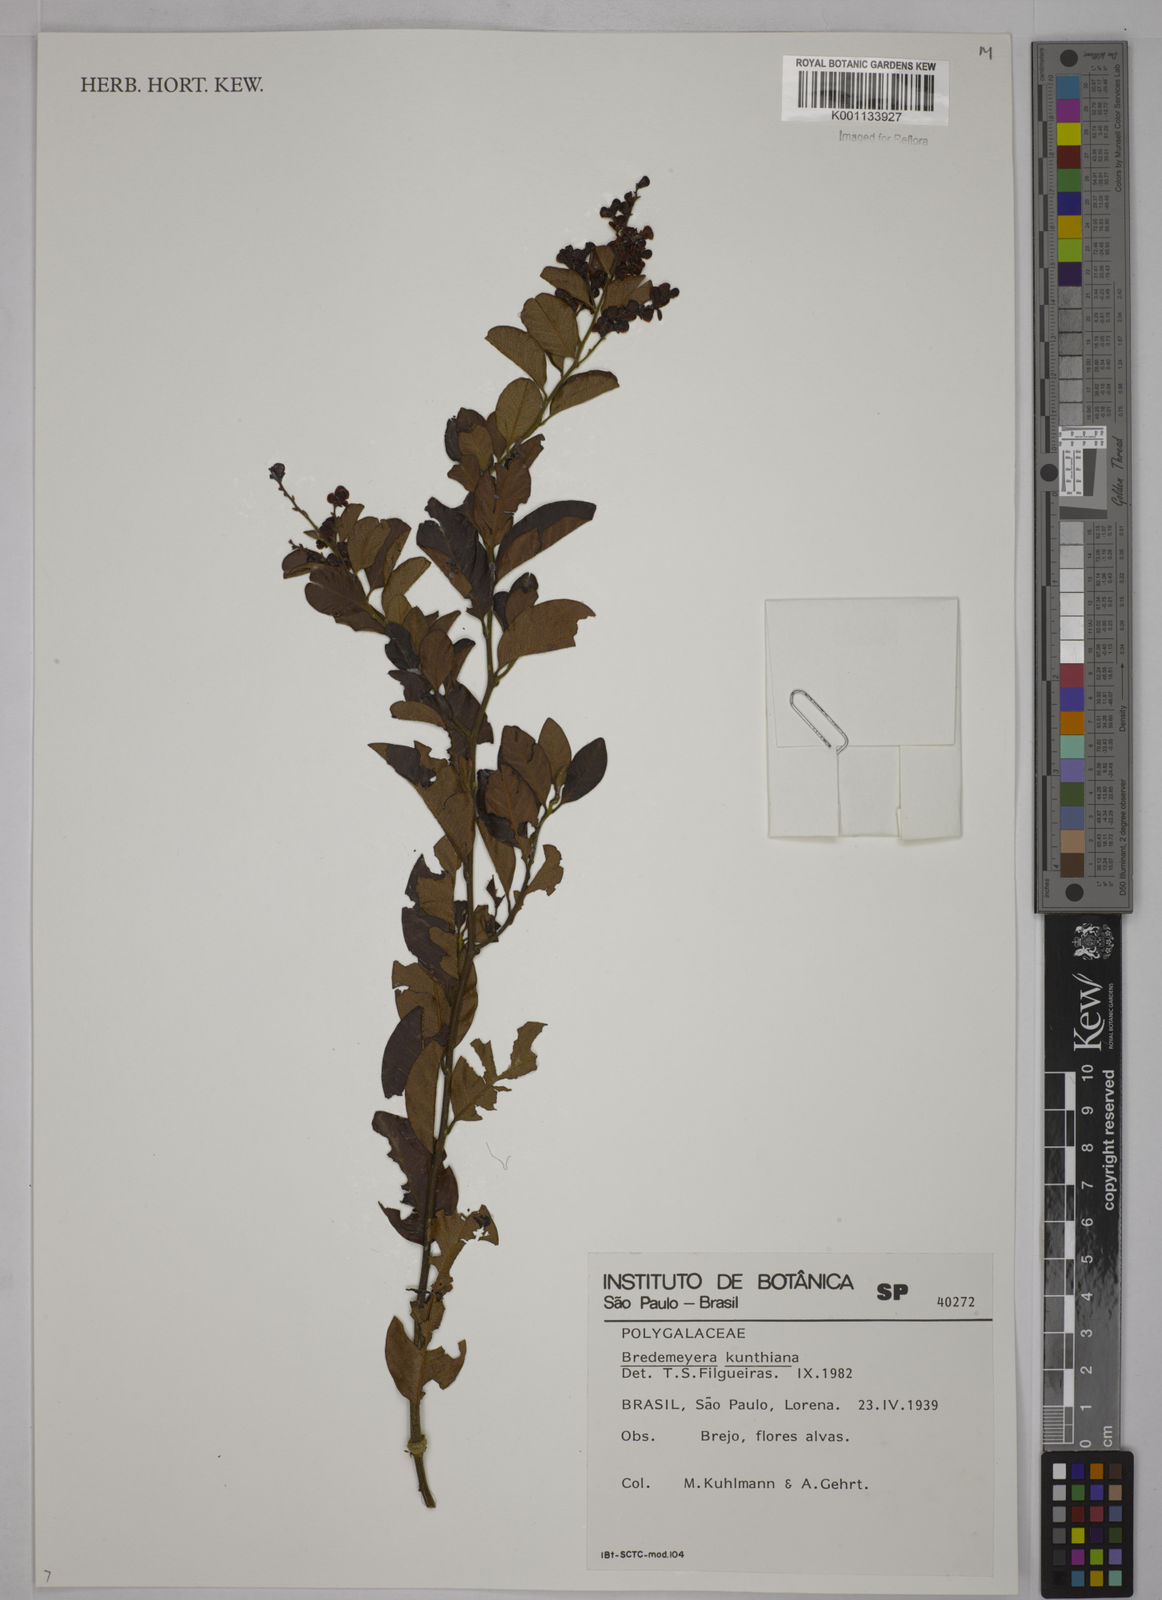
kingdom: Plantae
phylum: Tracheophyta
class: Magnoliopsida
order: Fabales
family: Polygalaceae
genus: Bredemeyera
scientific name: Bredemeyera hebeclada
